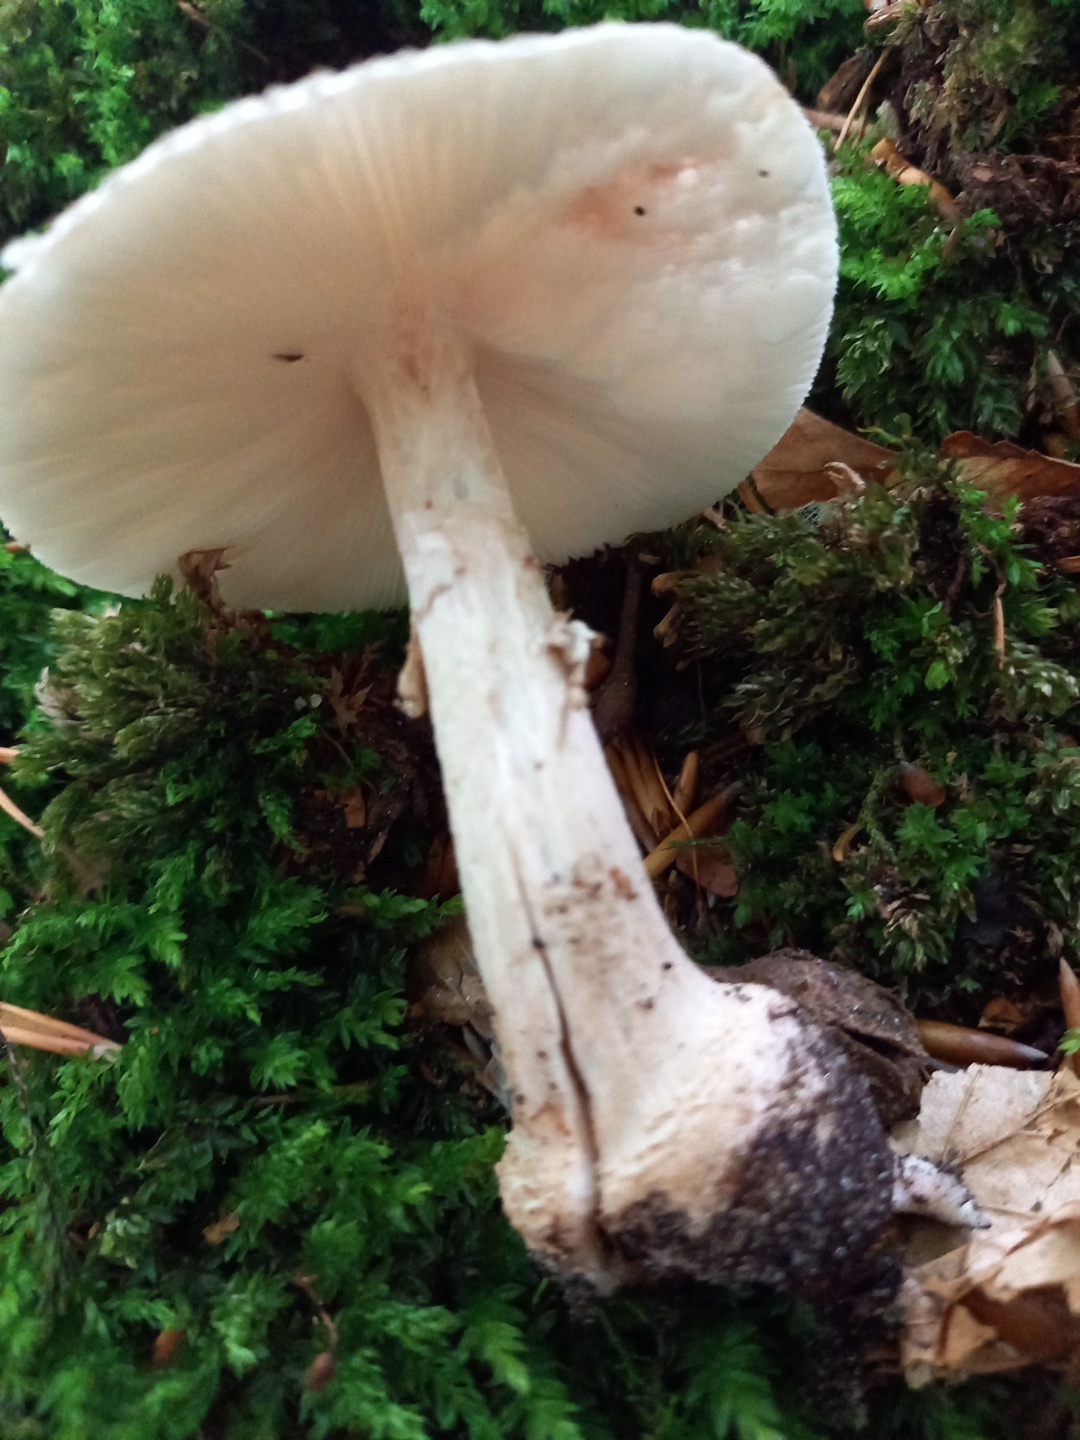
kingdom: Fungi
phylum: Basidiomycota
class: Agaricomycetes
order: Agaricales
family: Amanitaceae
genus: Amanita
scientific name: Amanita rubescens
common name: rødmende fluesvamp
